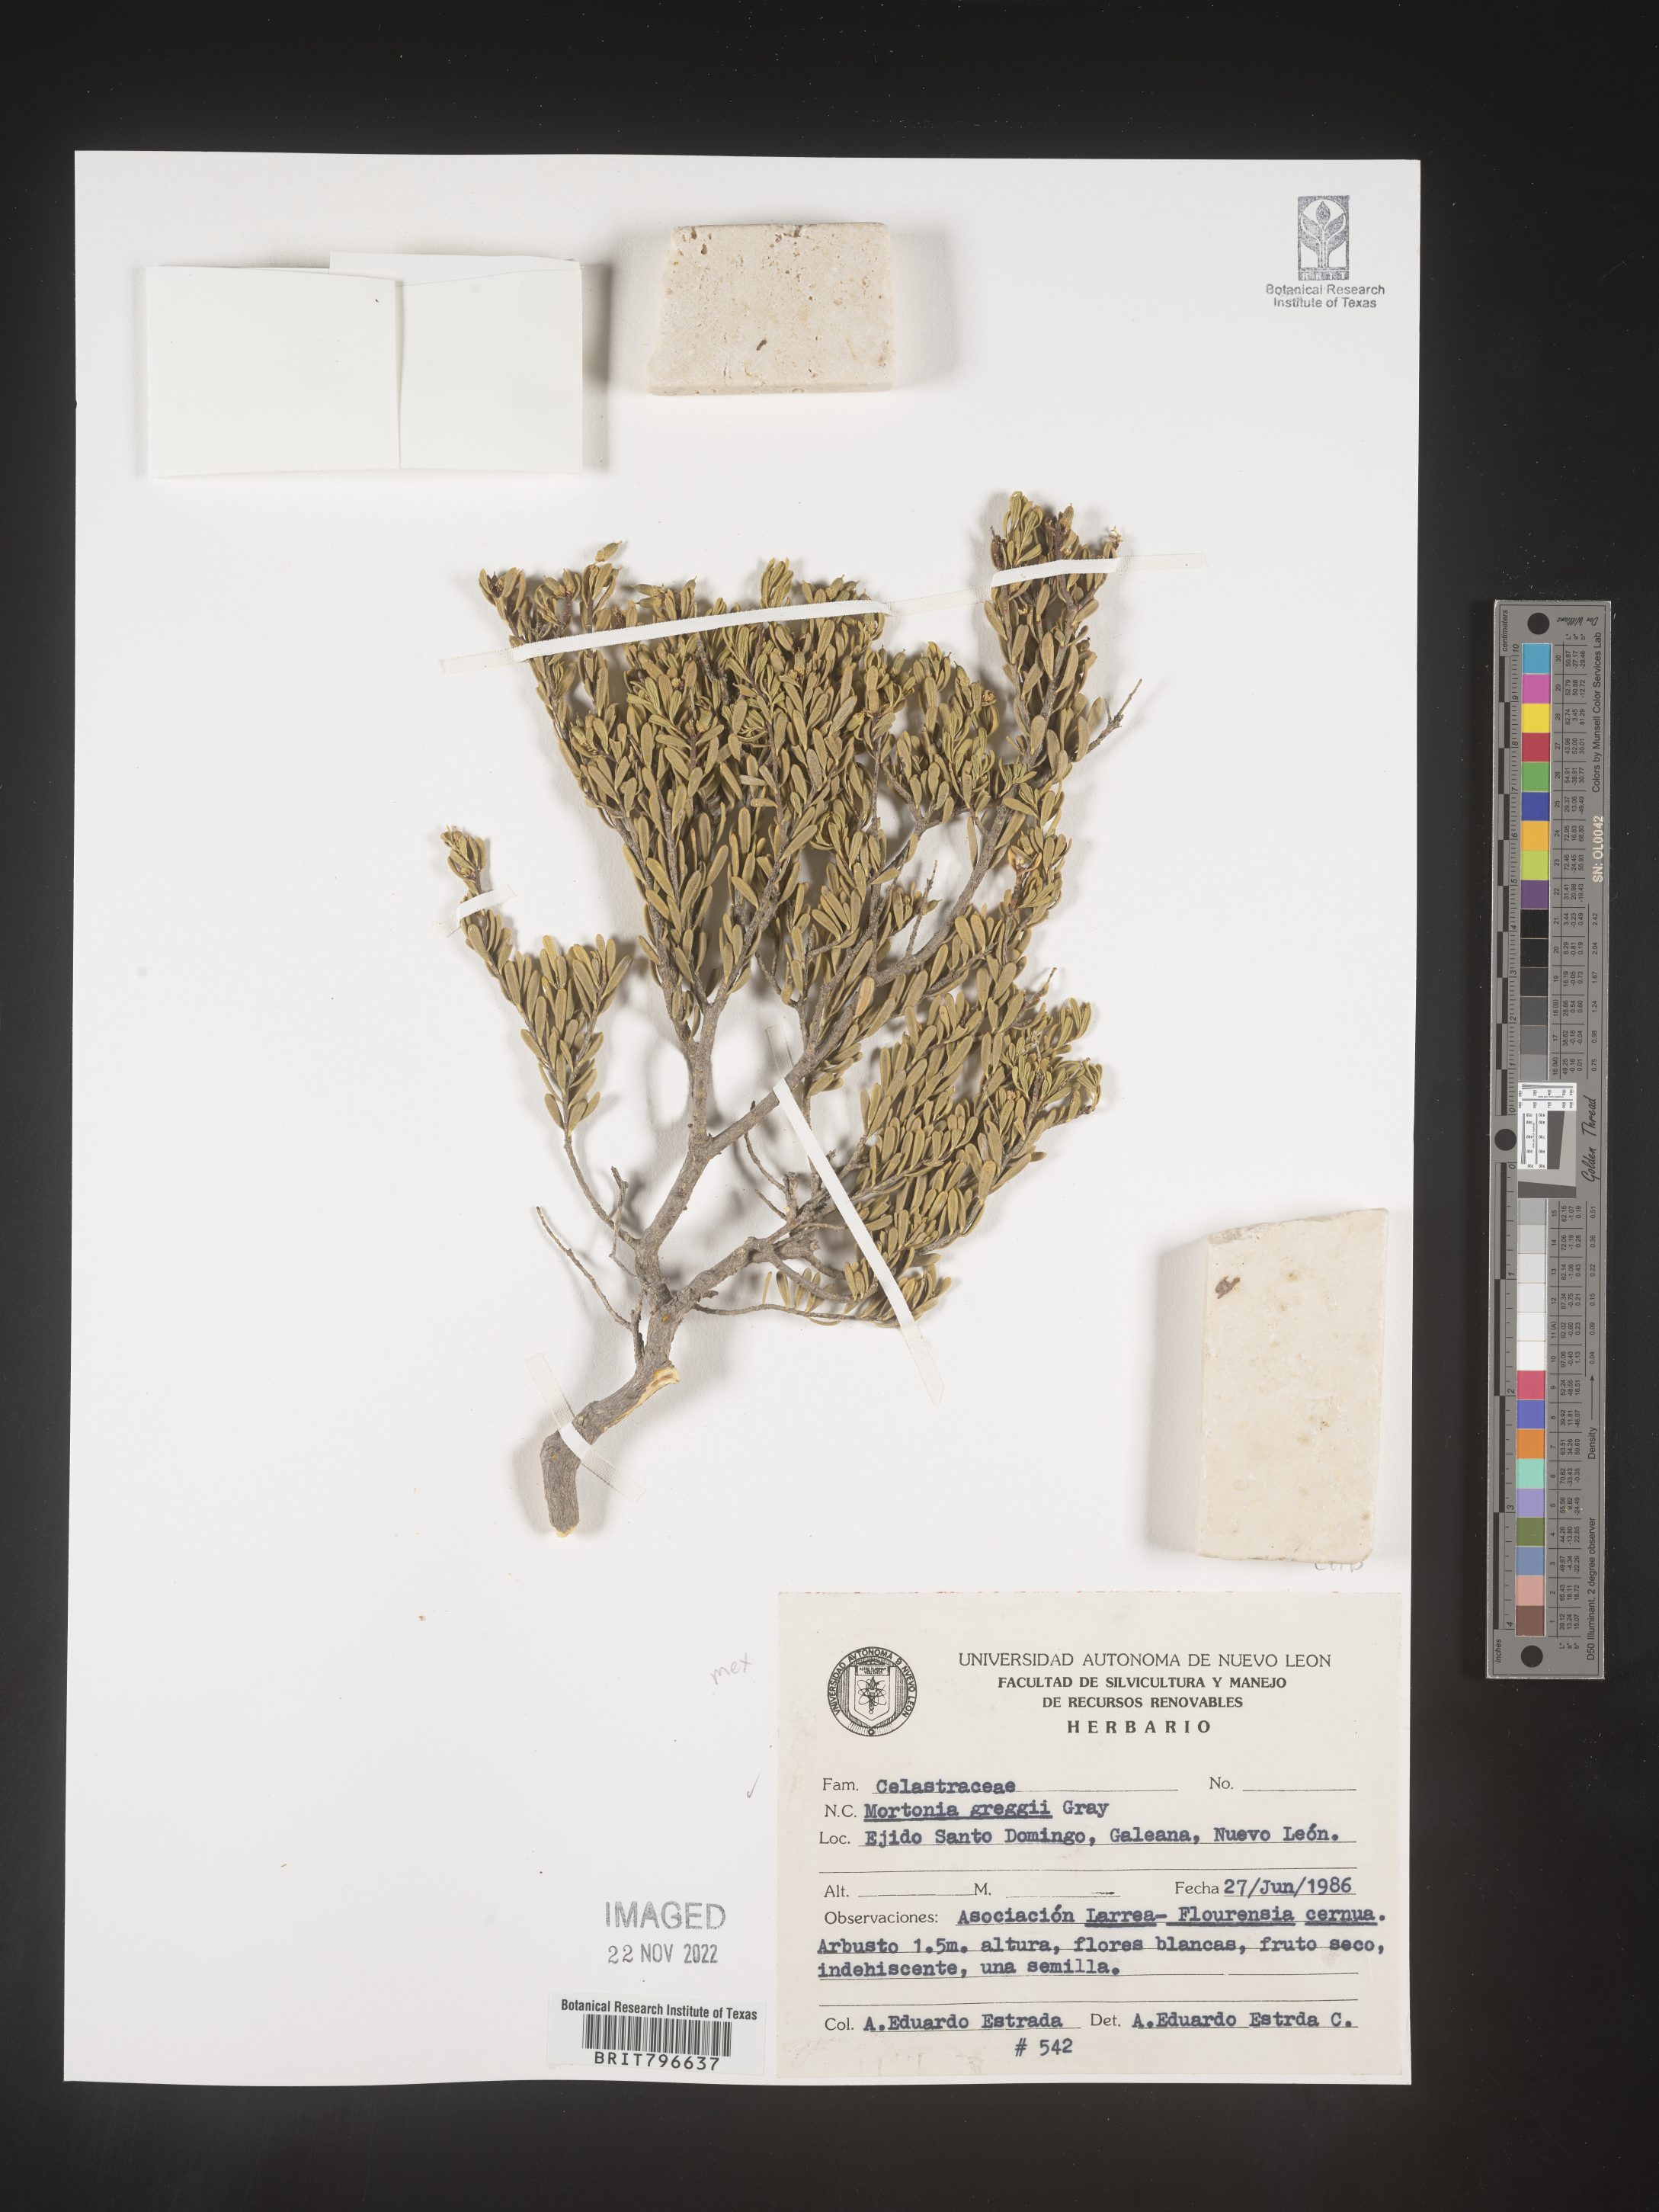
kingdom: Plantae
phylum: Tracheophyta
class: Magnoliopsida
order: Celastrales
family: Celastraceae
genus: Mortonia
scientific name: Mortonia
